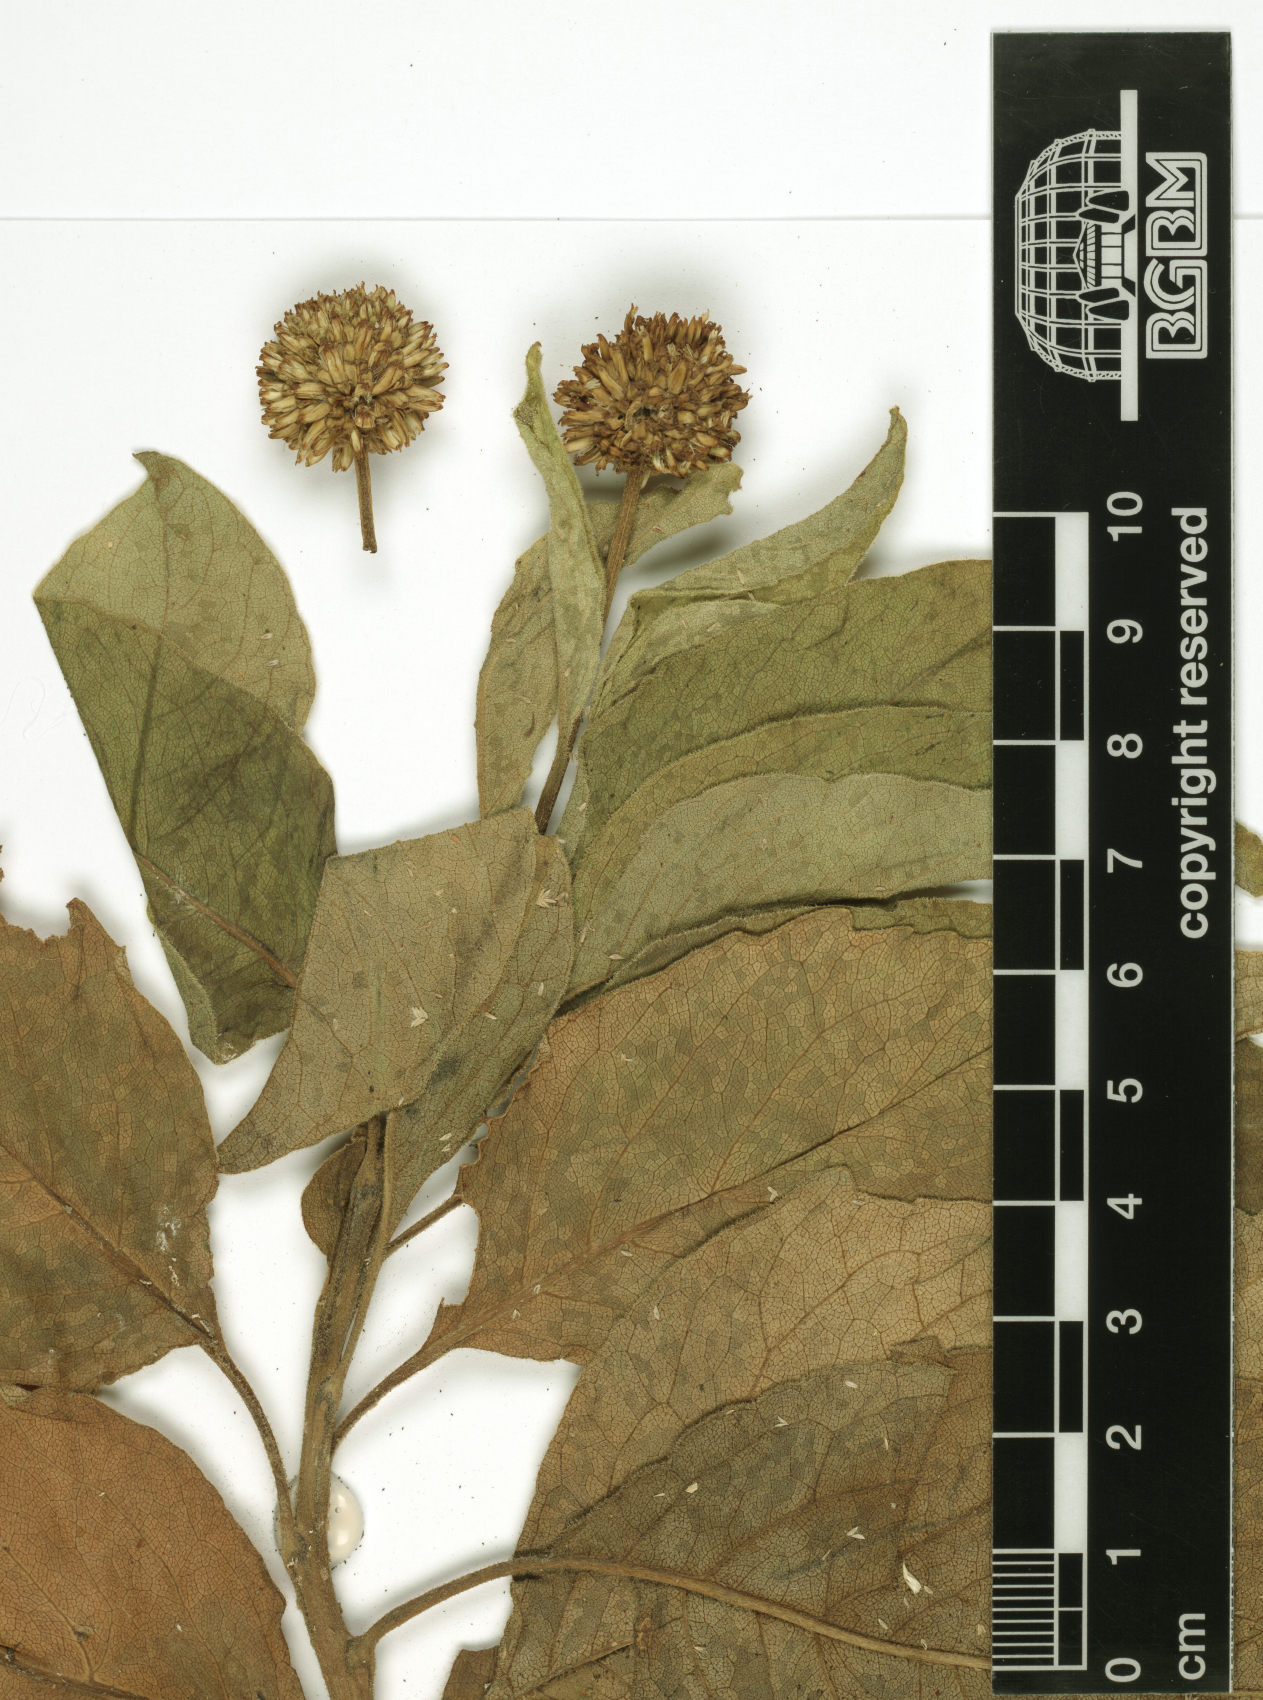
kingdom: Plantae
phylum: Tracheophyta
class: Magnoliopsida
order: Asterales
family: Asteraceae
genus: Blepharispermum
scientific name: Blepharispermum hirtum
